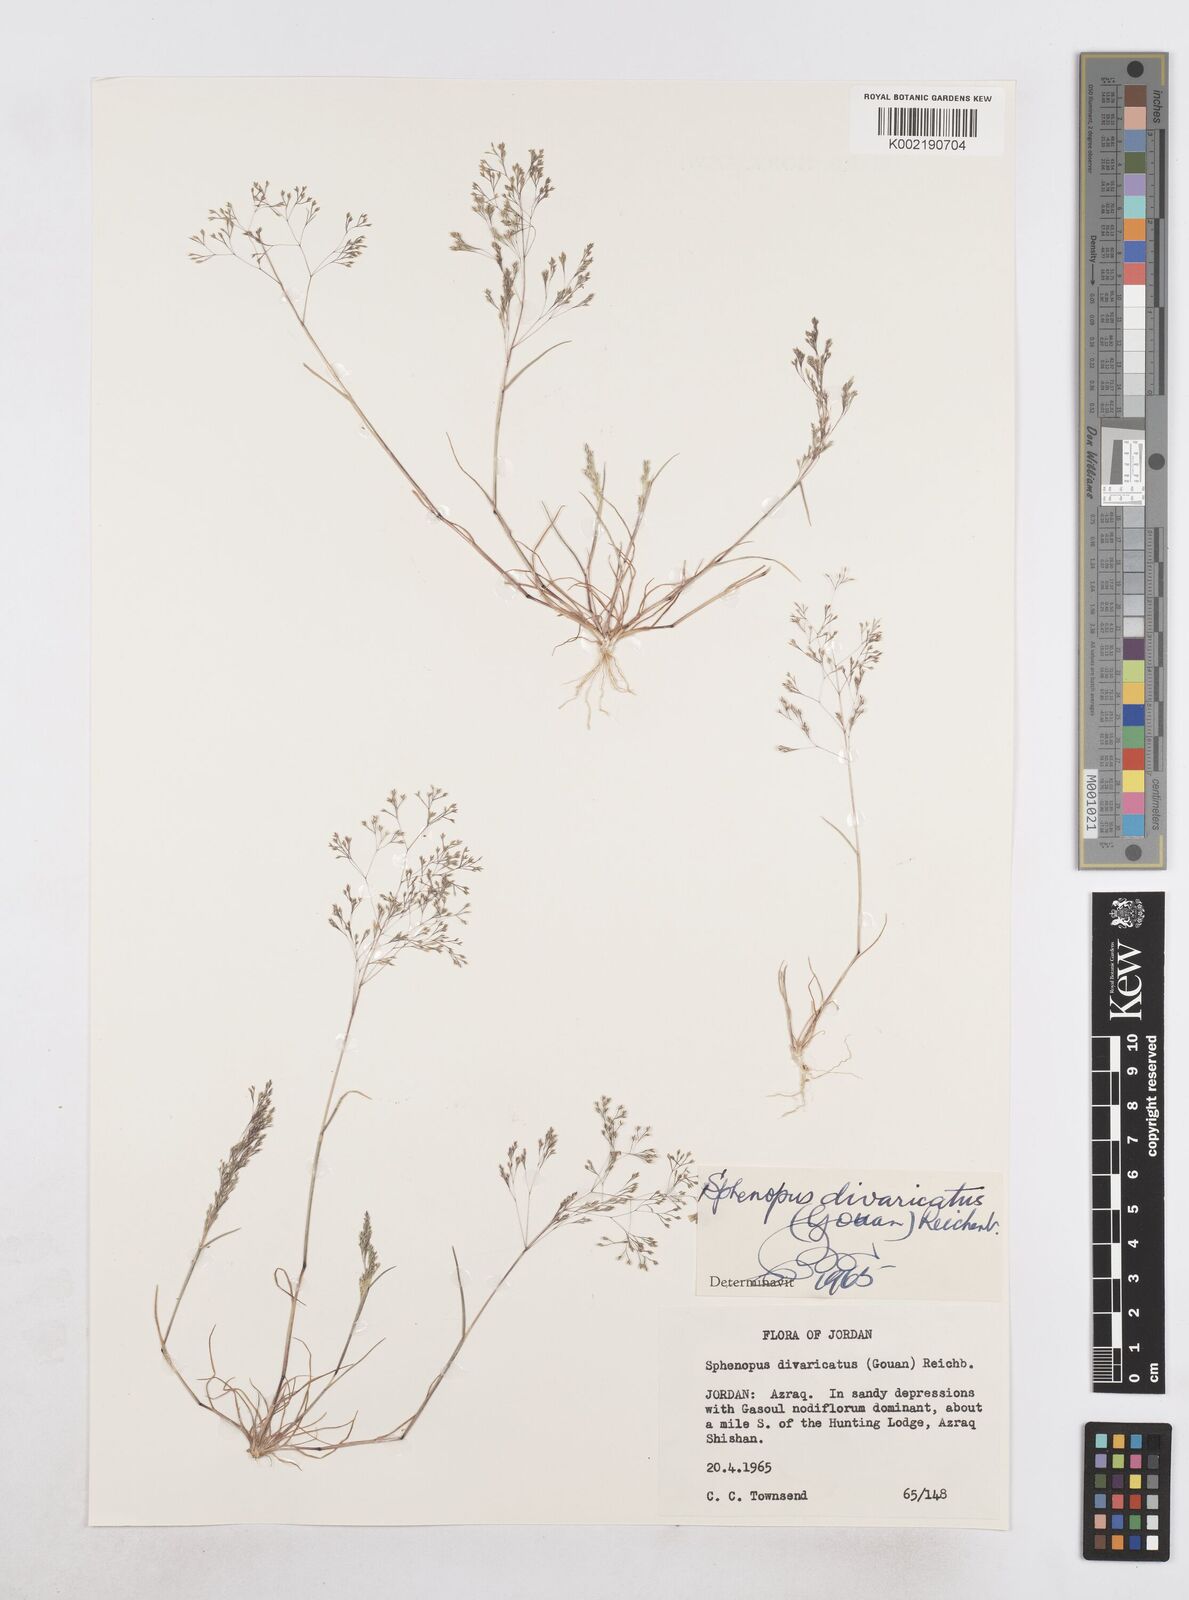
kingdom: Plantae
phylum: Tracheophyta
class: Liliopsida
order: Poales
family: Poaceae
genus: Sphenopus
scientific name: Sphenopus divaricatus
